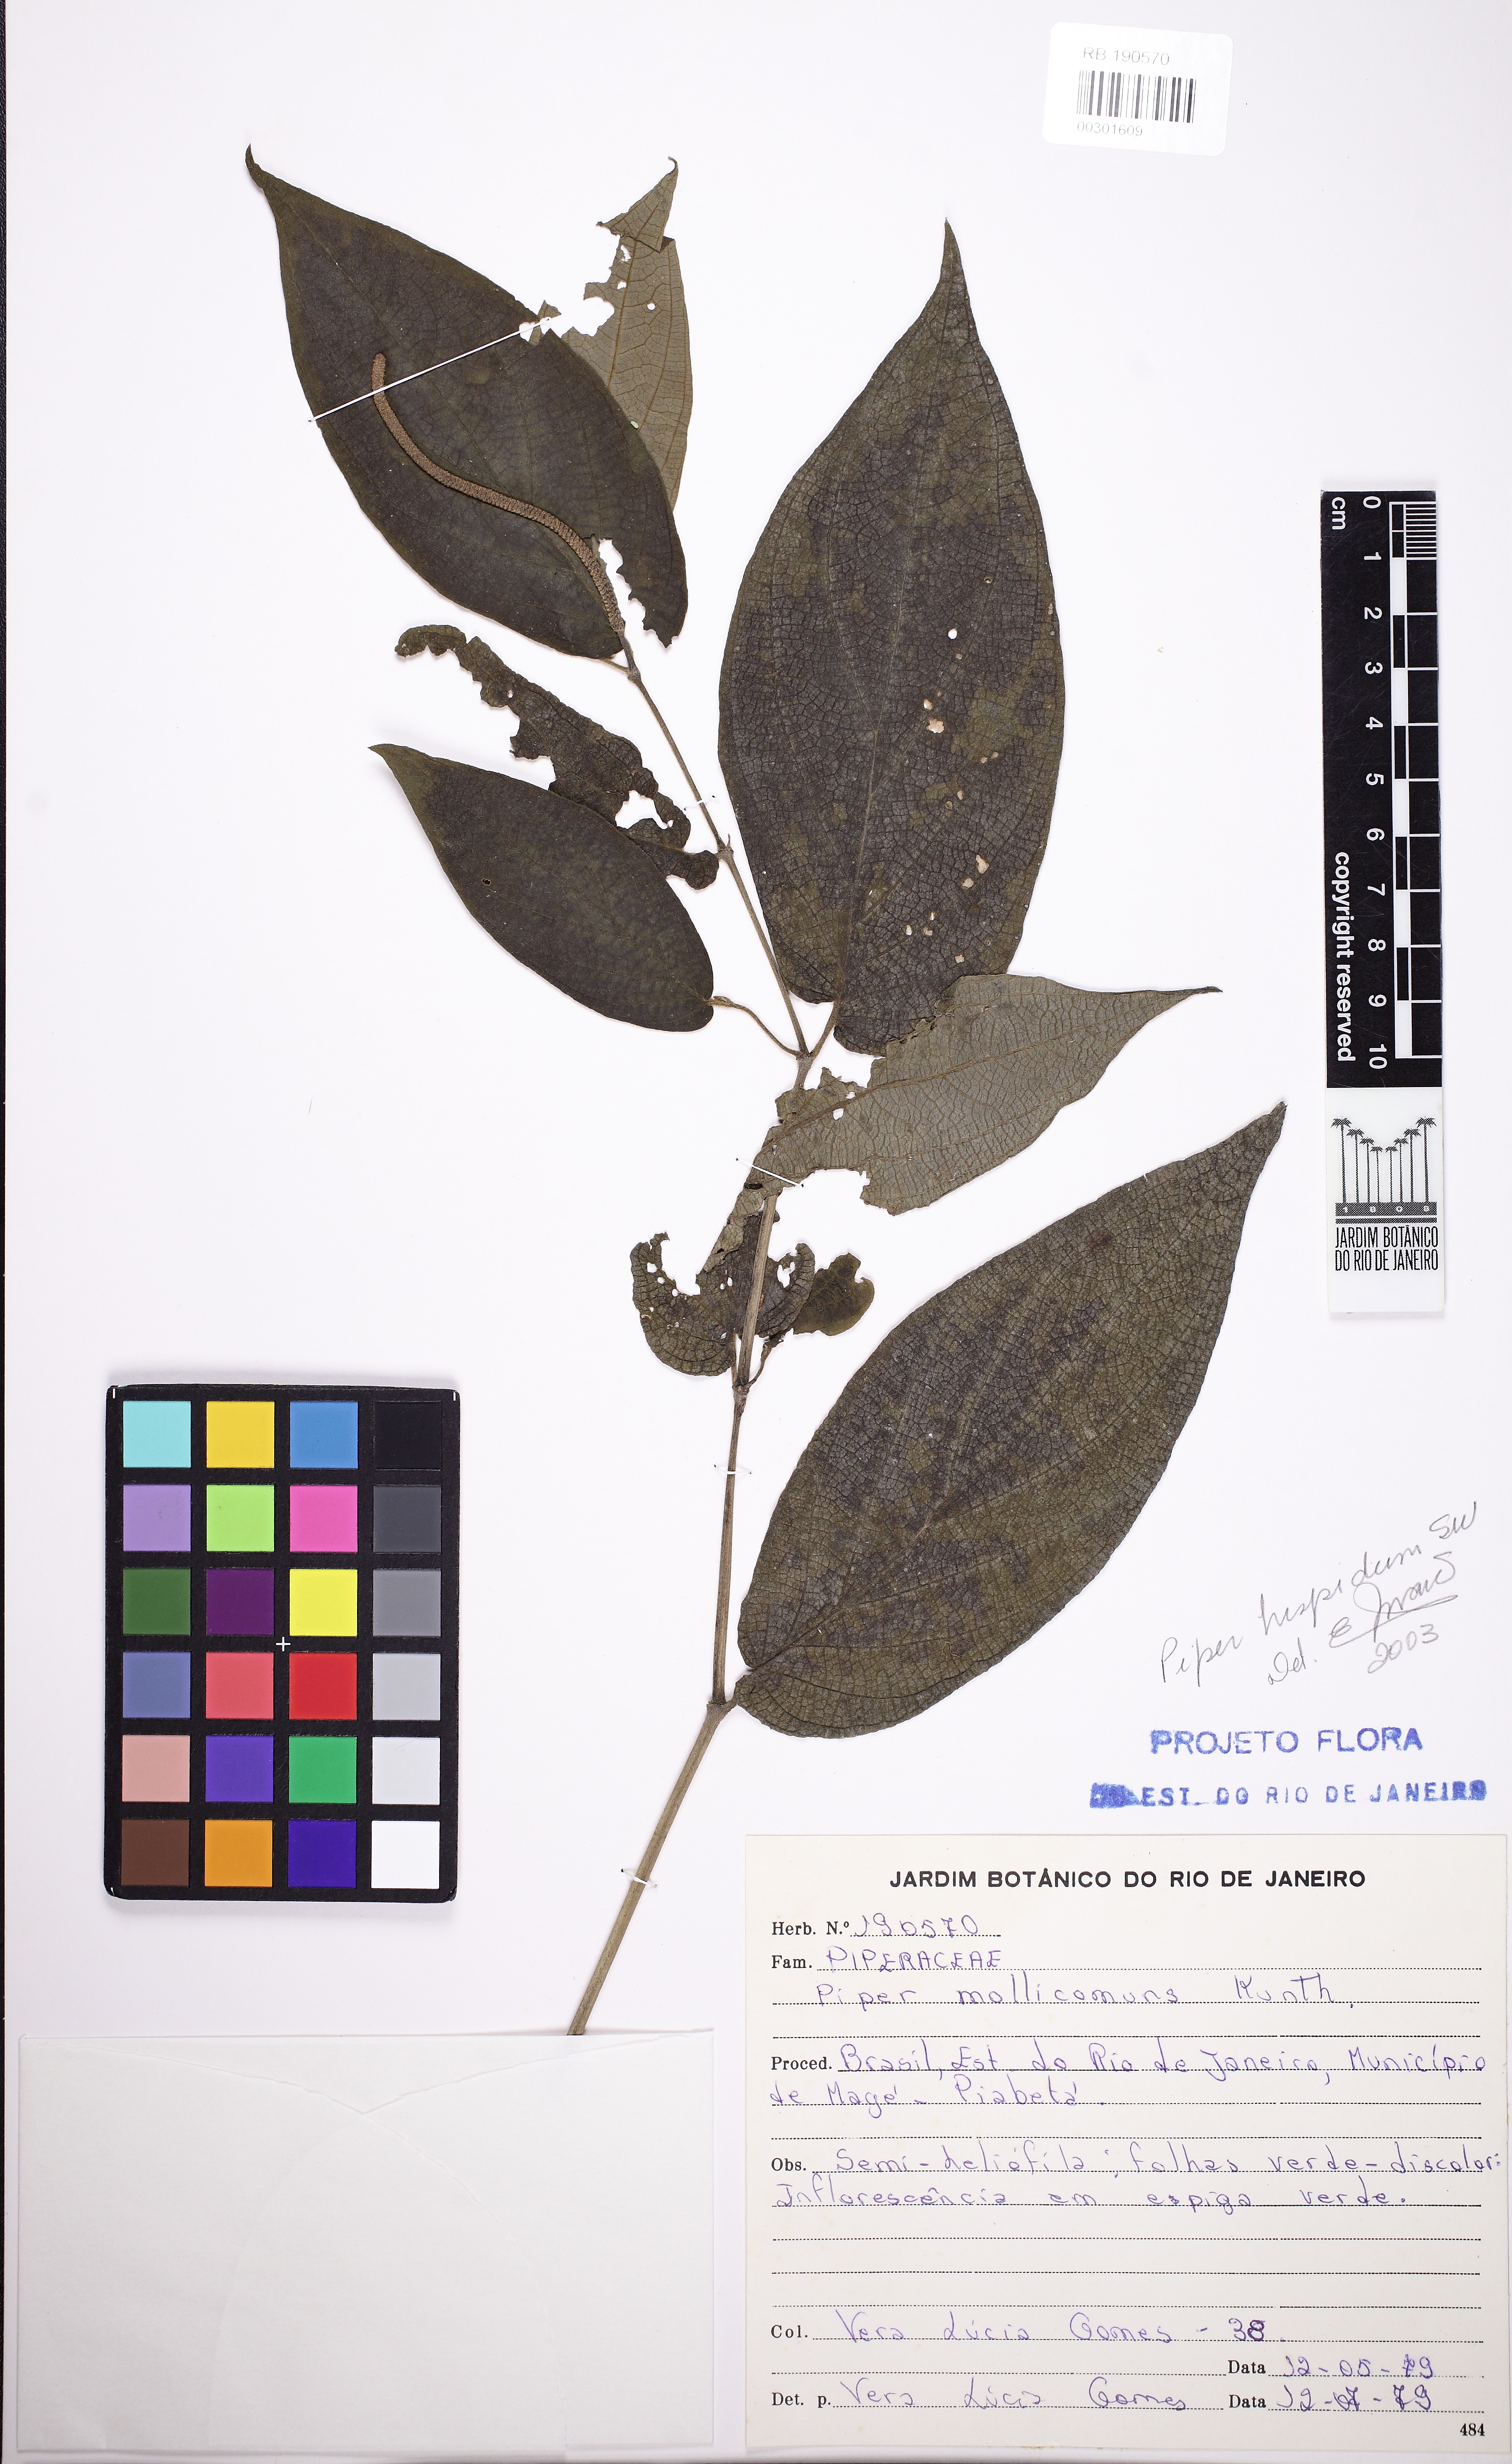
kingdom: Plantae
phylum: Tracheophyta
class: Magnoliopsida
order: Piperales
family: Piperaceae
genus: Piper
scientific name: Piper mollicomum
